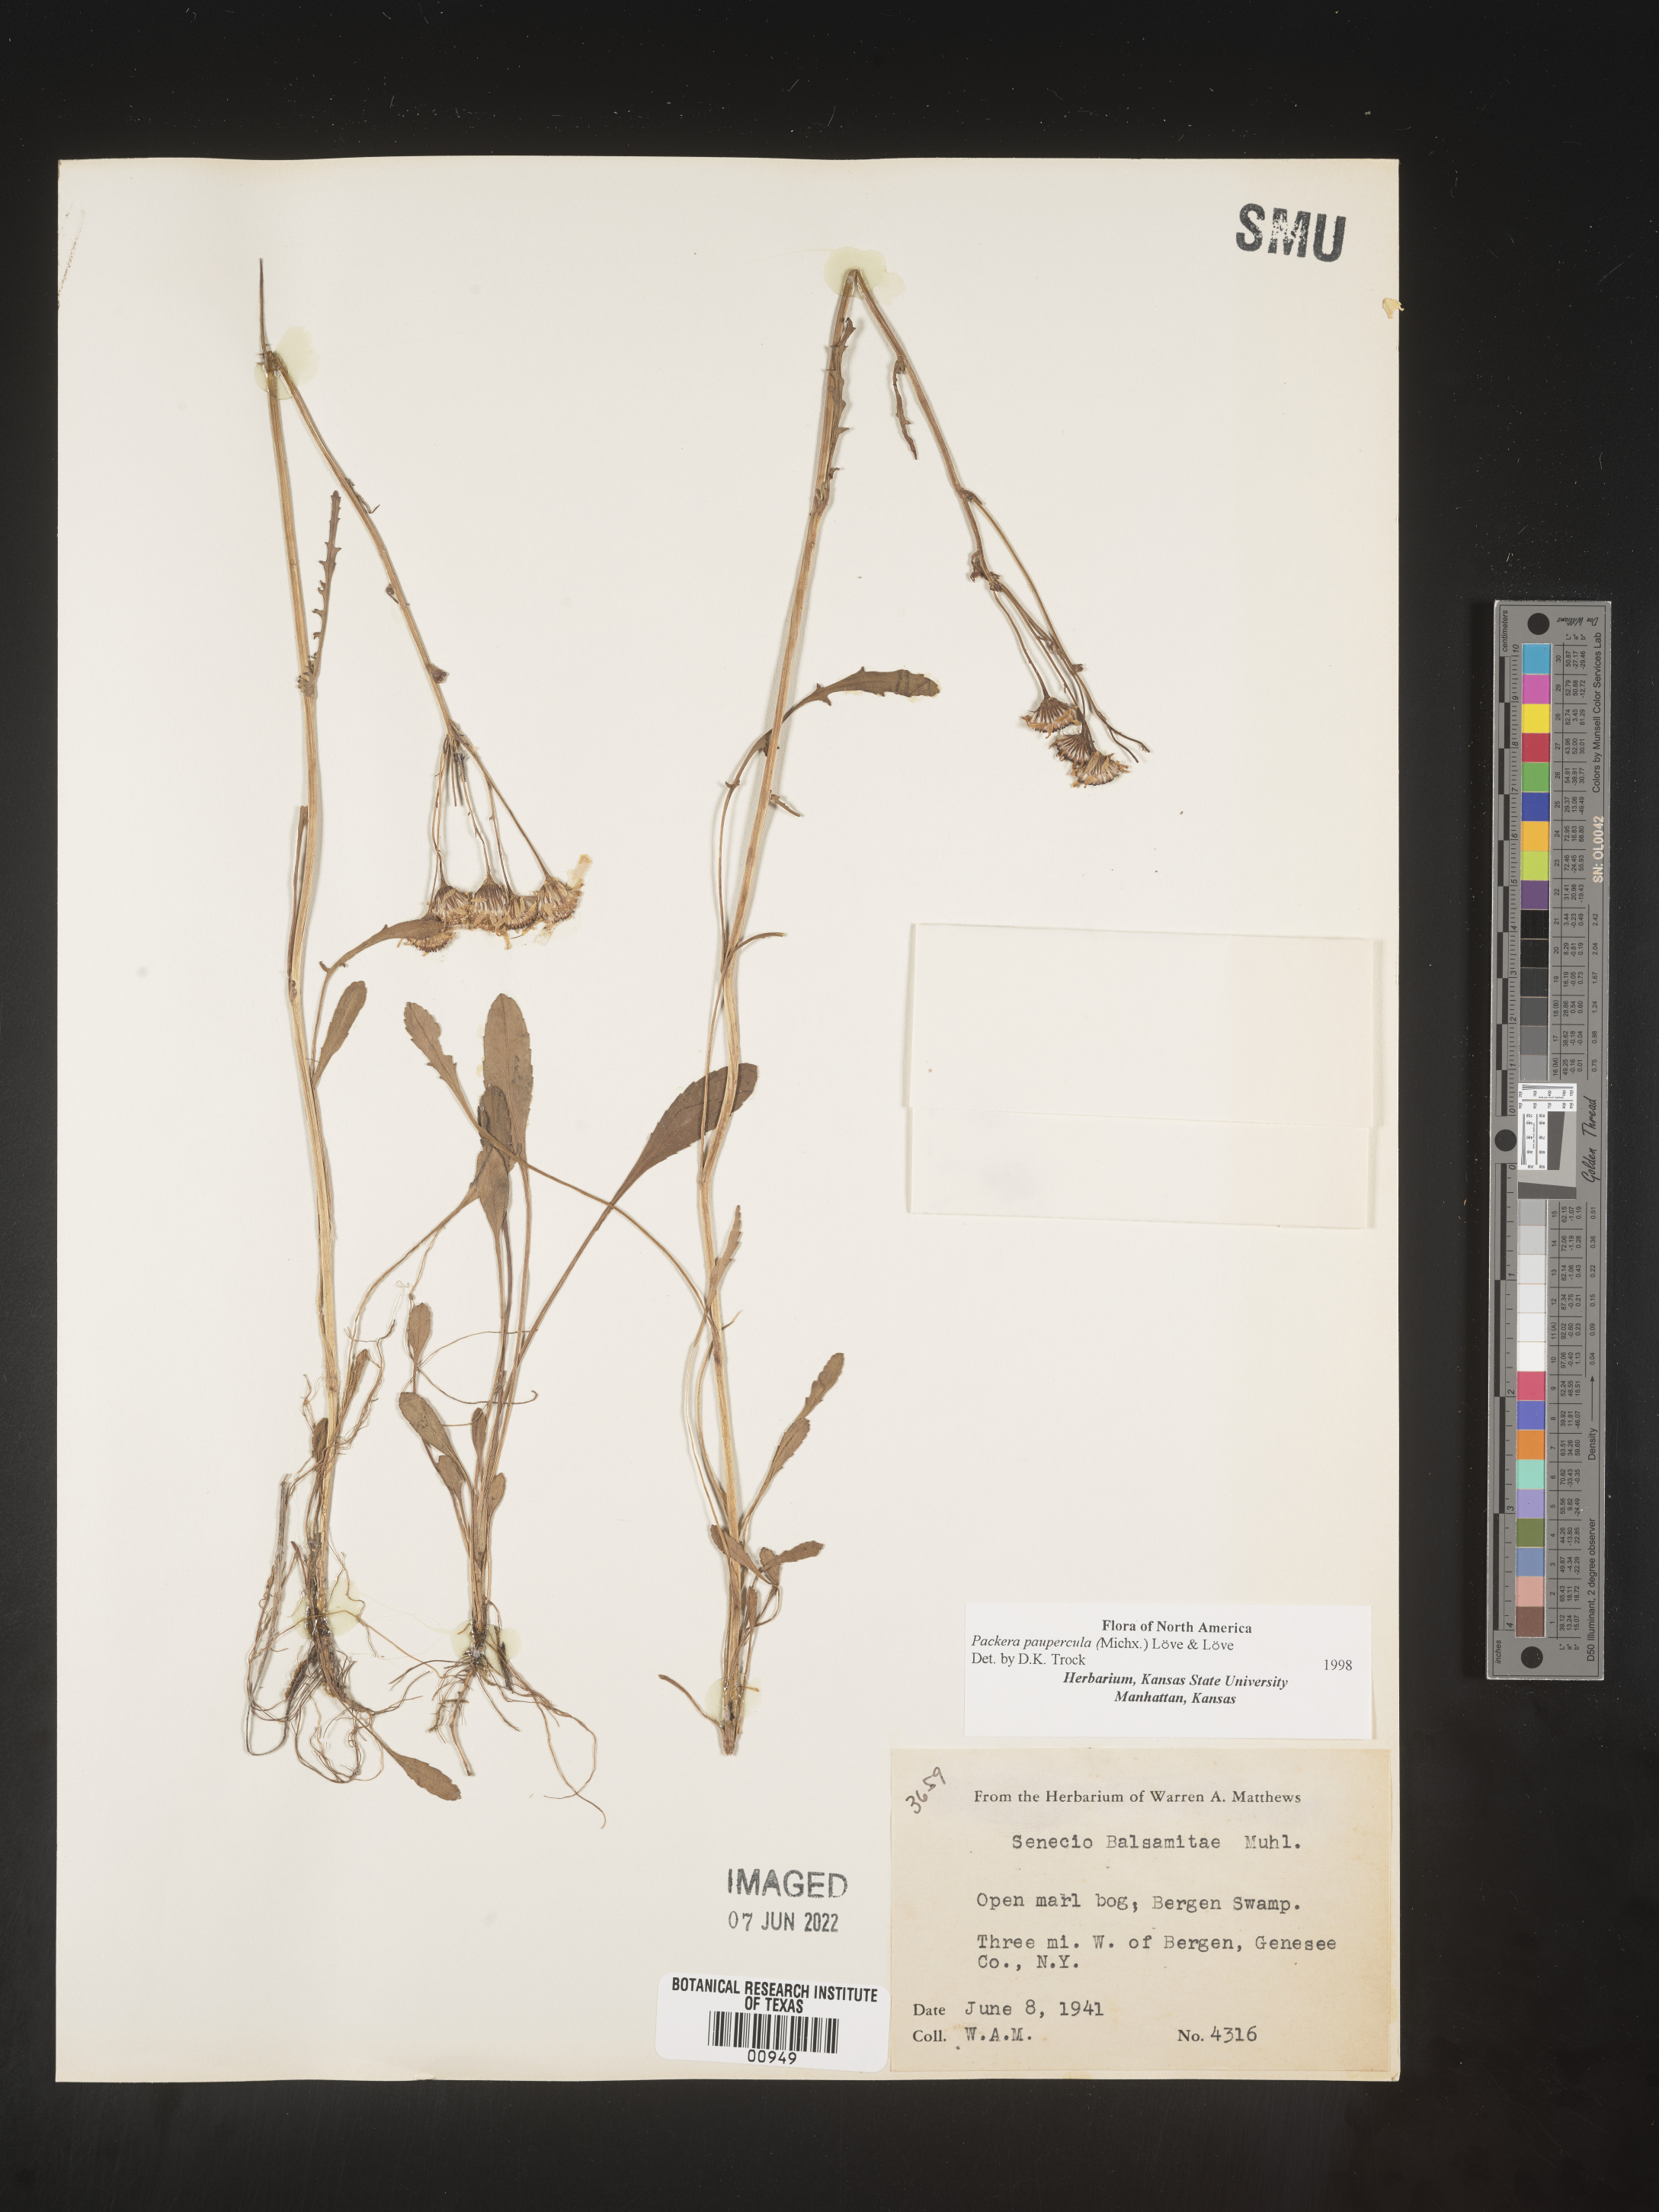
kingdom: Plantae
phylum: Tracheophyta
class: Magnoliopsida
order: Asterales
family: Asteraceae
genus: Packera
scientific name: Packera paupercula
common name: Balsam groundsel
